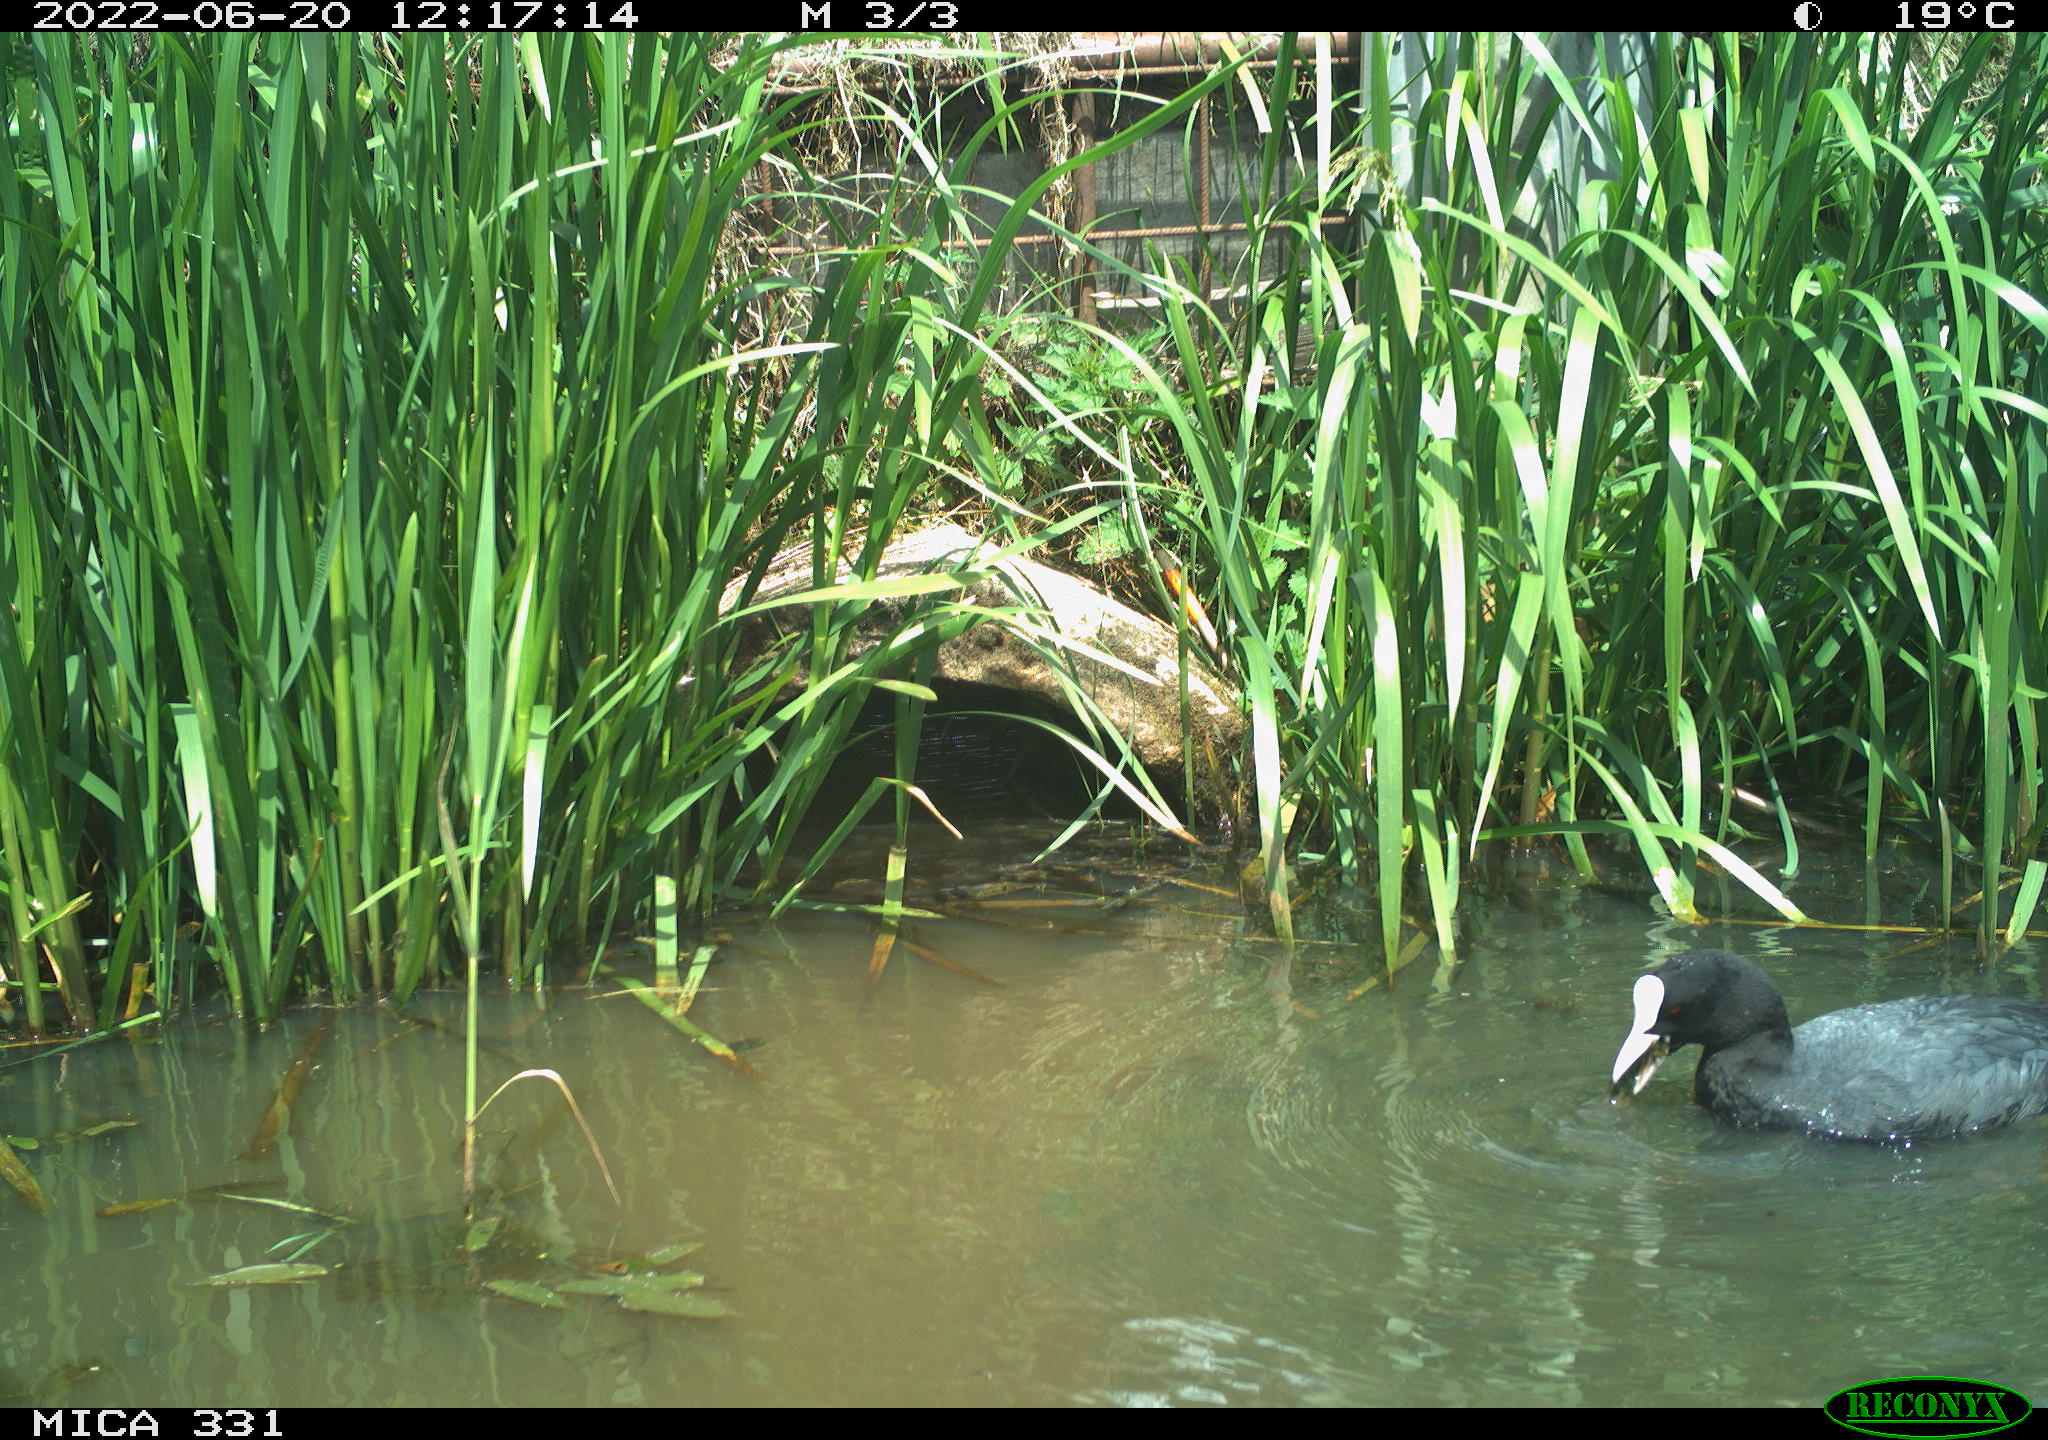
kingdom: Animalia
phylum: Chordata
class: Aves
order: Gruiformes
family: Rallidae
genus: Fulica
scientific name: Fulica atra
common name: Eurasian coot
